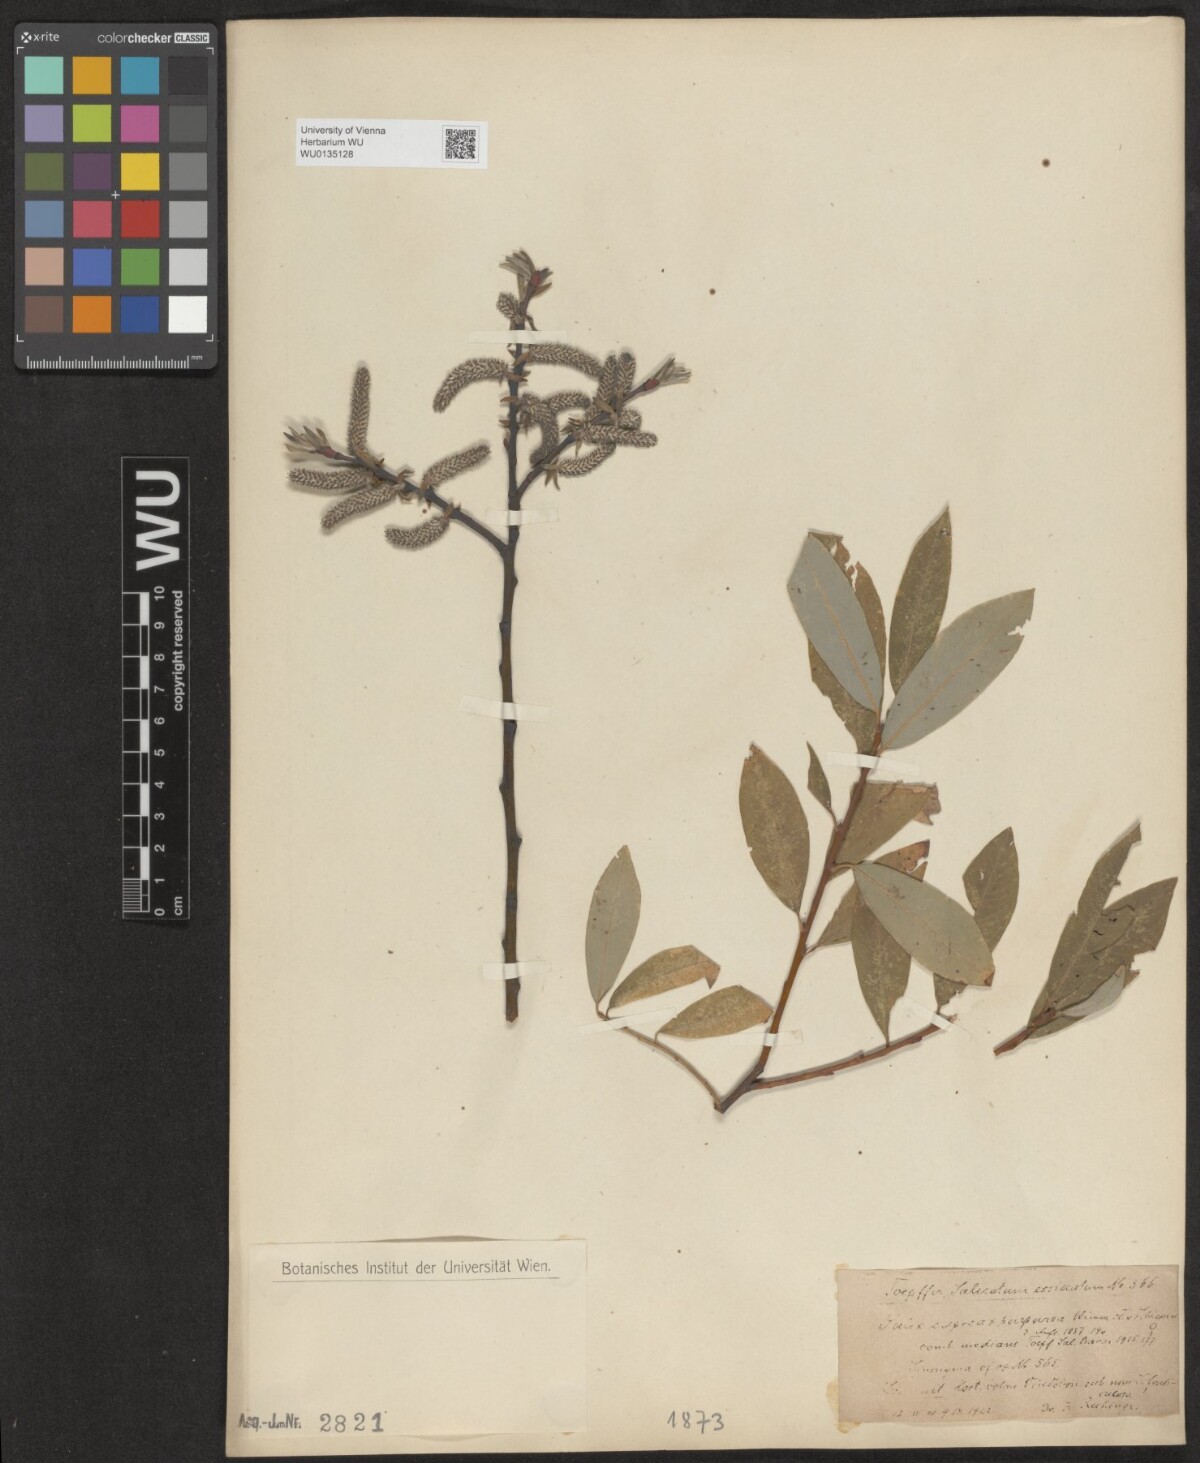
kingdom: Plantae
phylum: Tracheophyta
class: Magnoliopsida
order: Malpighiales
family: Salicaceae
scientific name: Salicaceae
